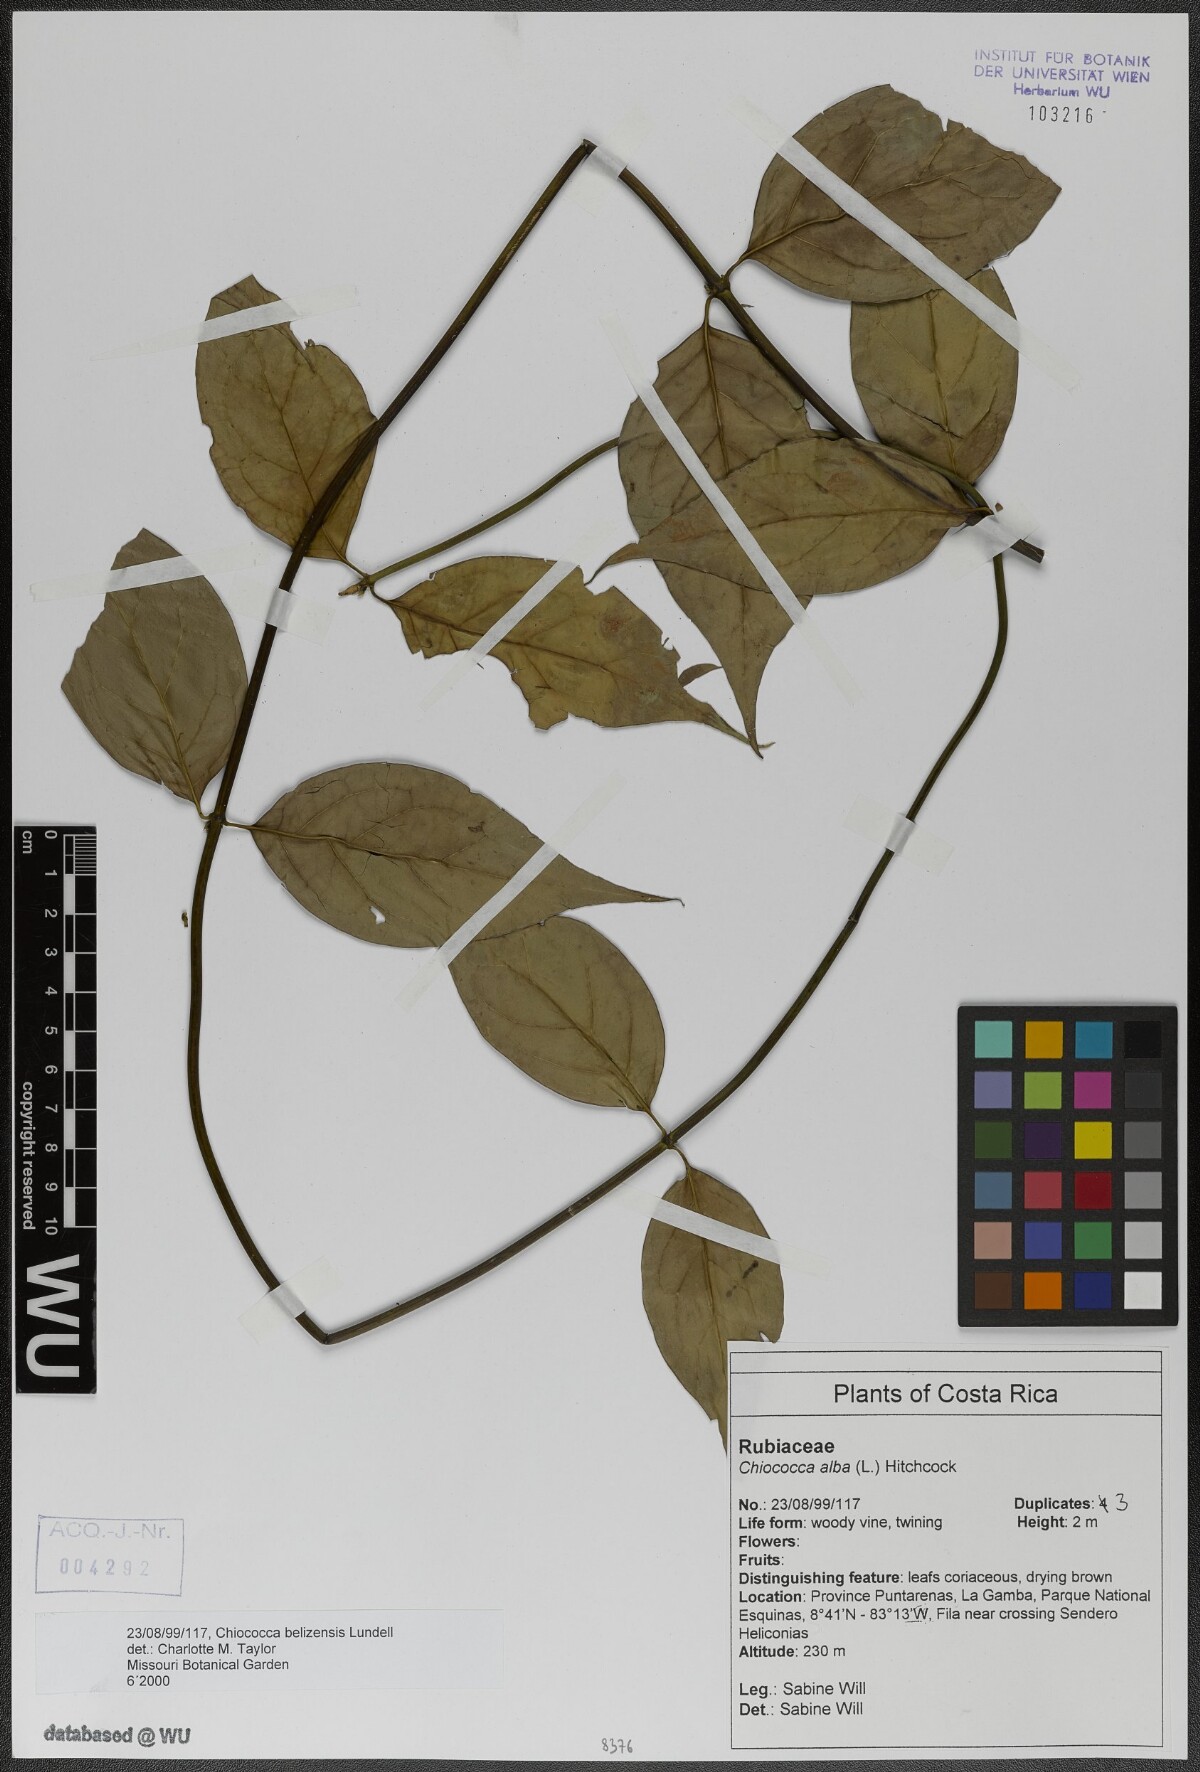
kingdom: Plantae
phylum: Tracheophyta
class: Magnoliopsida
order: Gentianales
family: Rubiaceae
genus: Chiococca
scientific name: Chiococca belizensis
